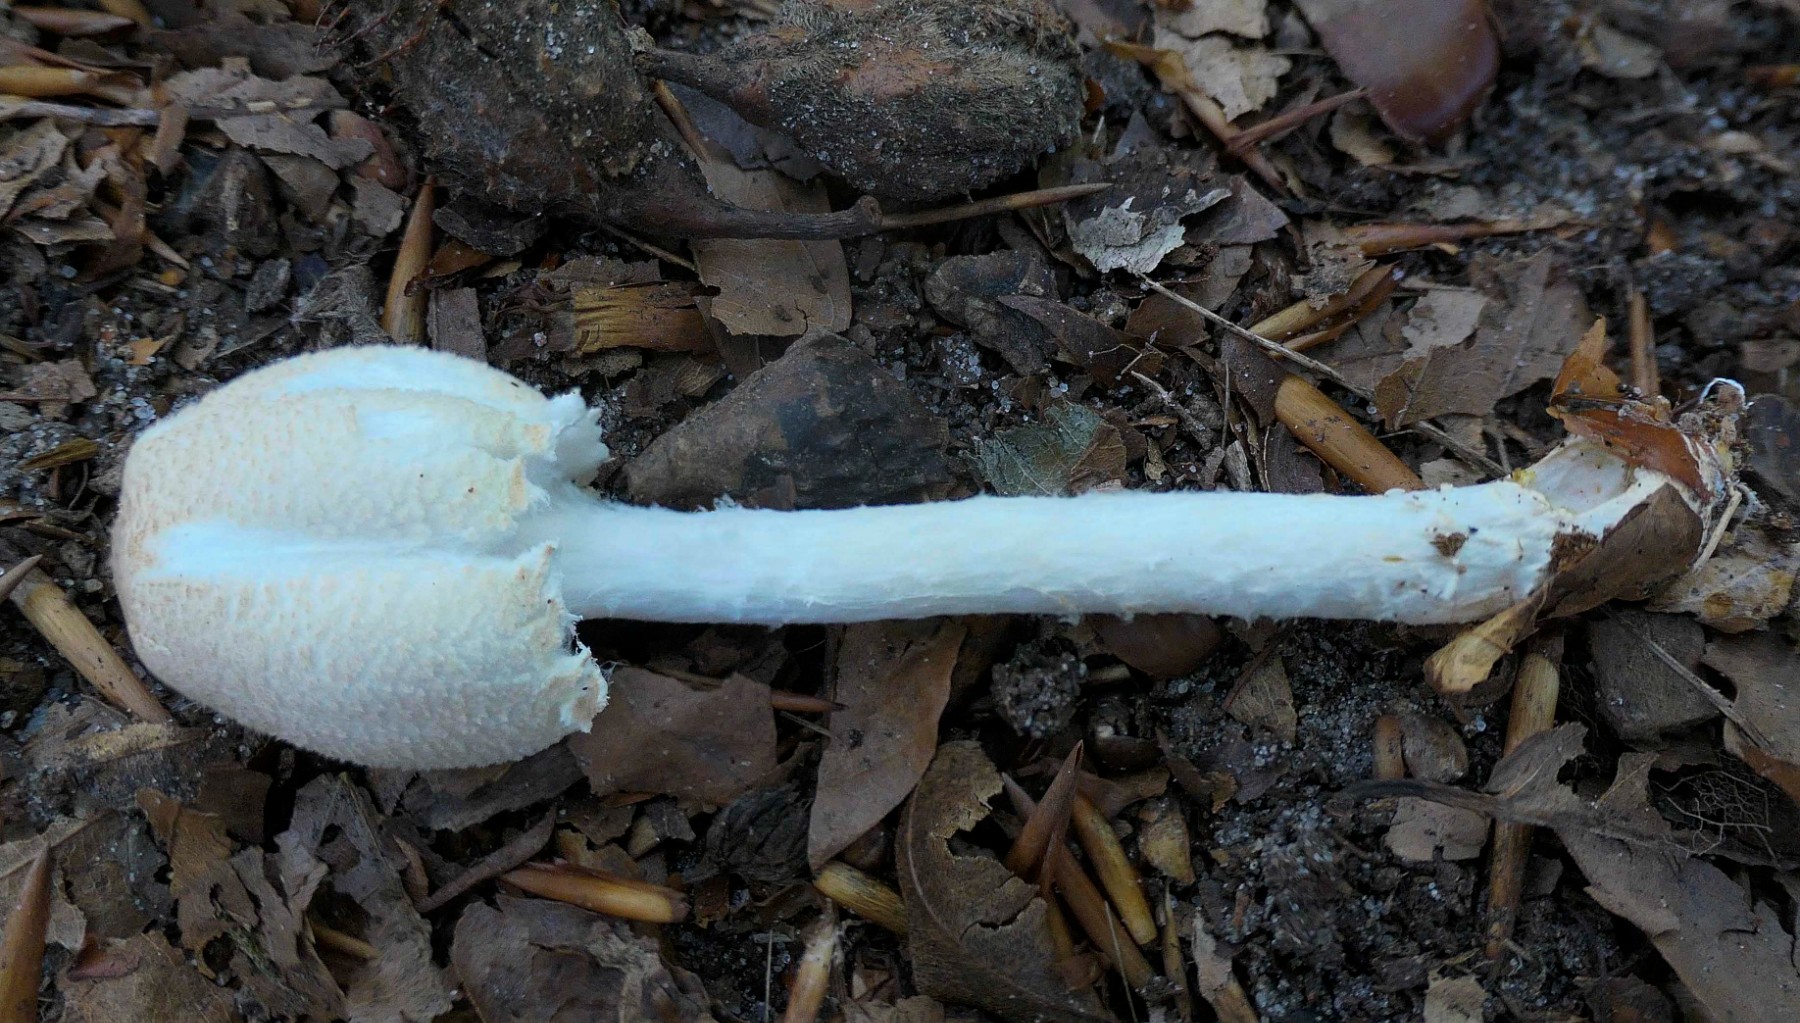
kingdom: Fungi
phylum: Basidiomycota
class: Agaricomycetes
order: Agaricales
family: Agaricaceae
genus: Lepiota
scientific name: Lepiota magnispora
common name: gulfnugget parasolhat
